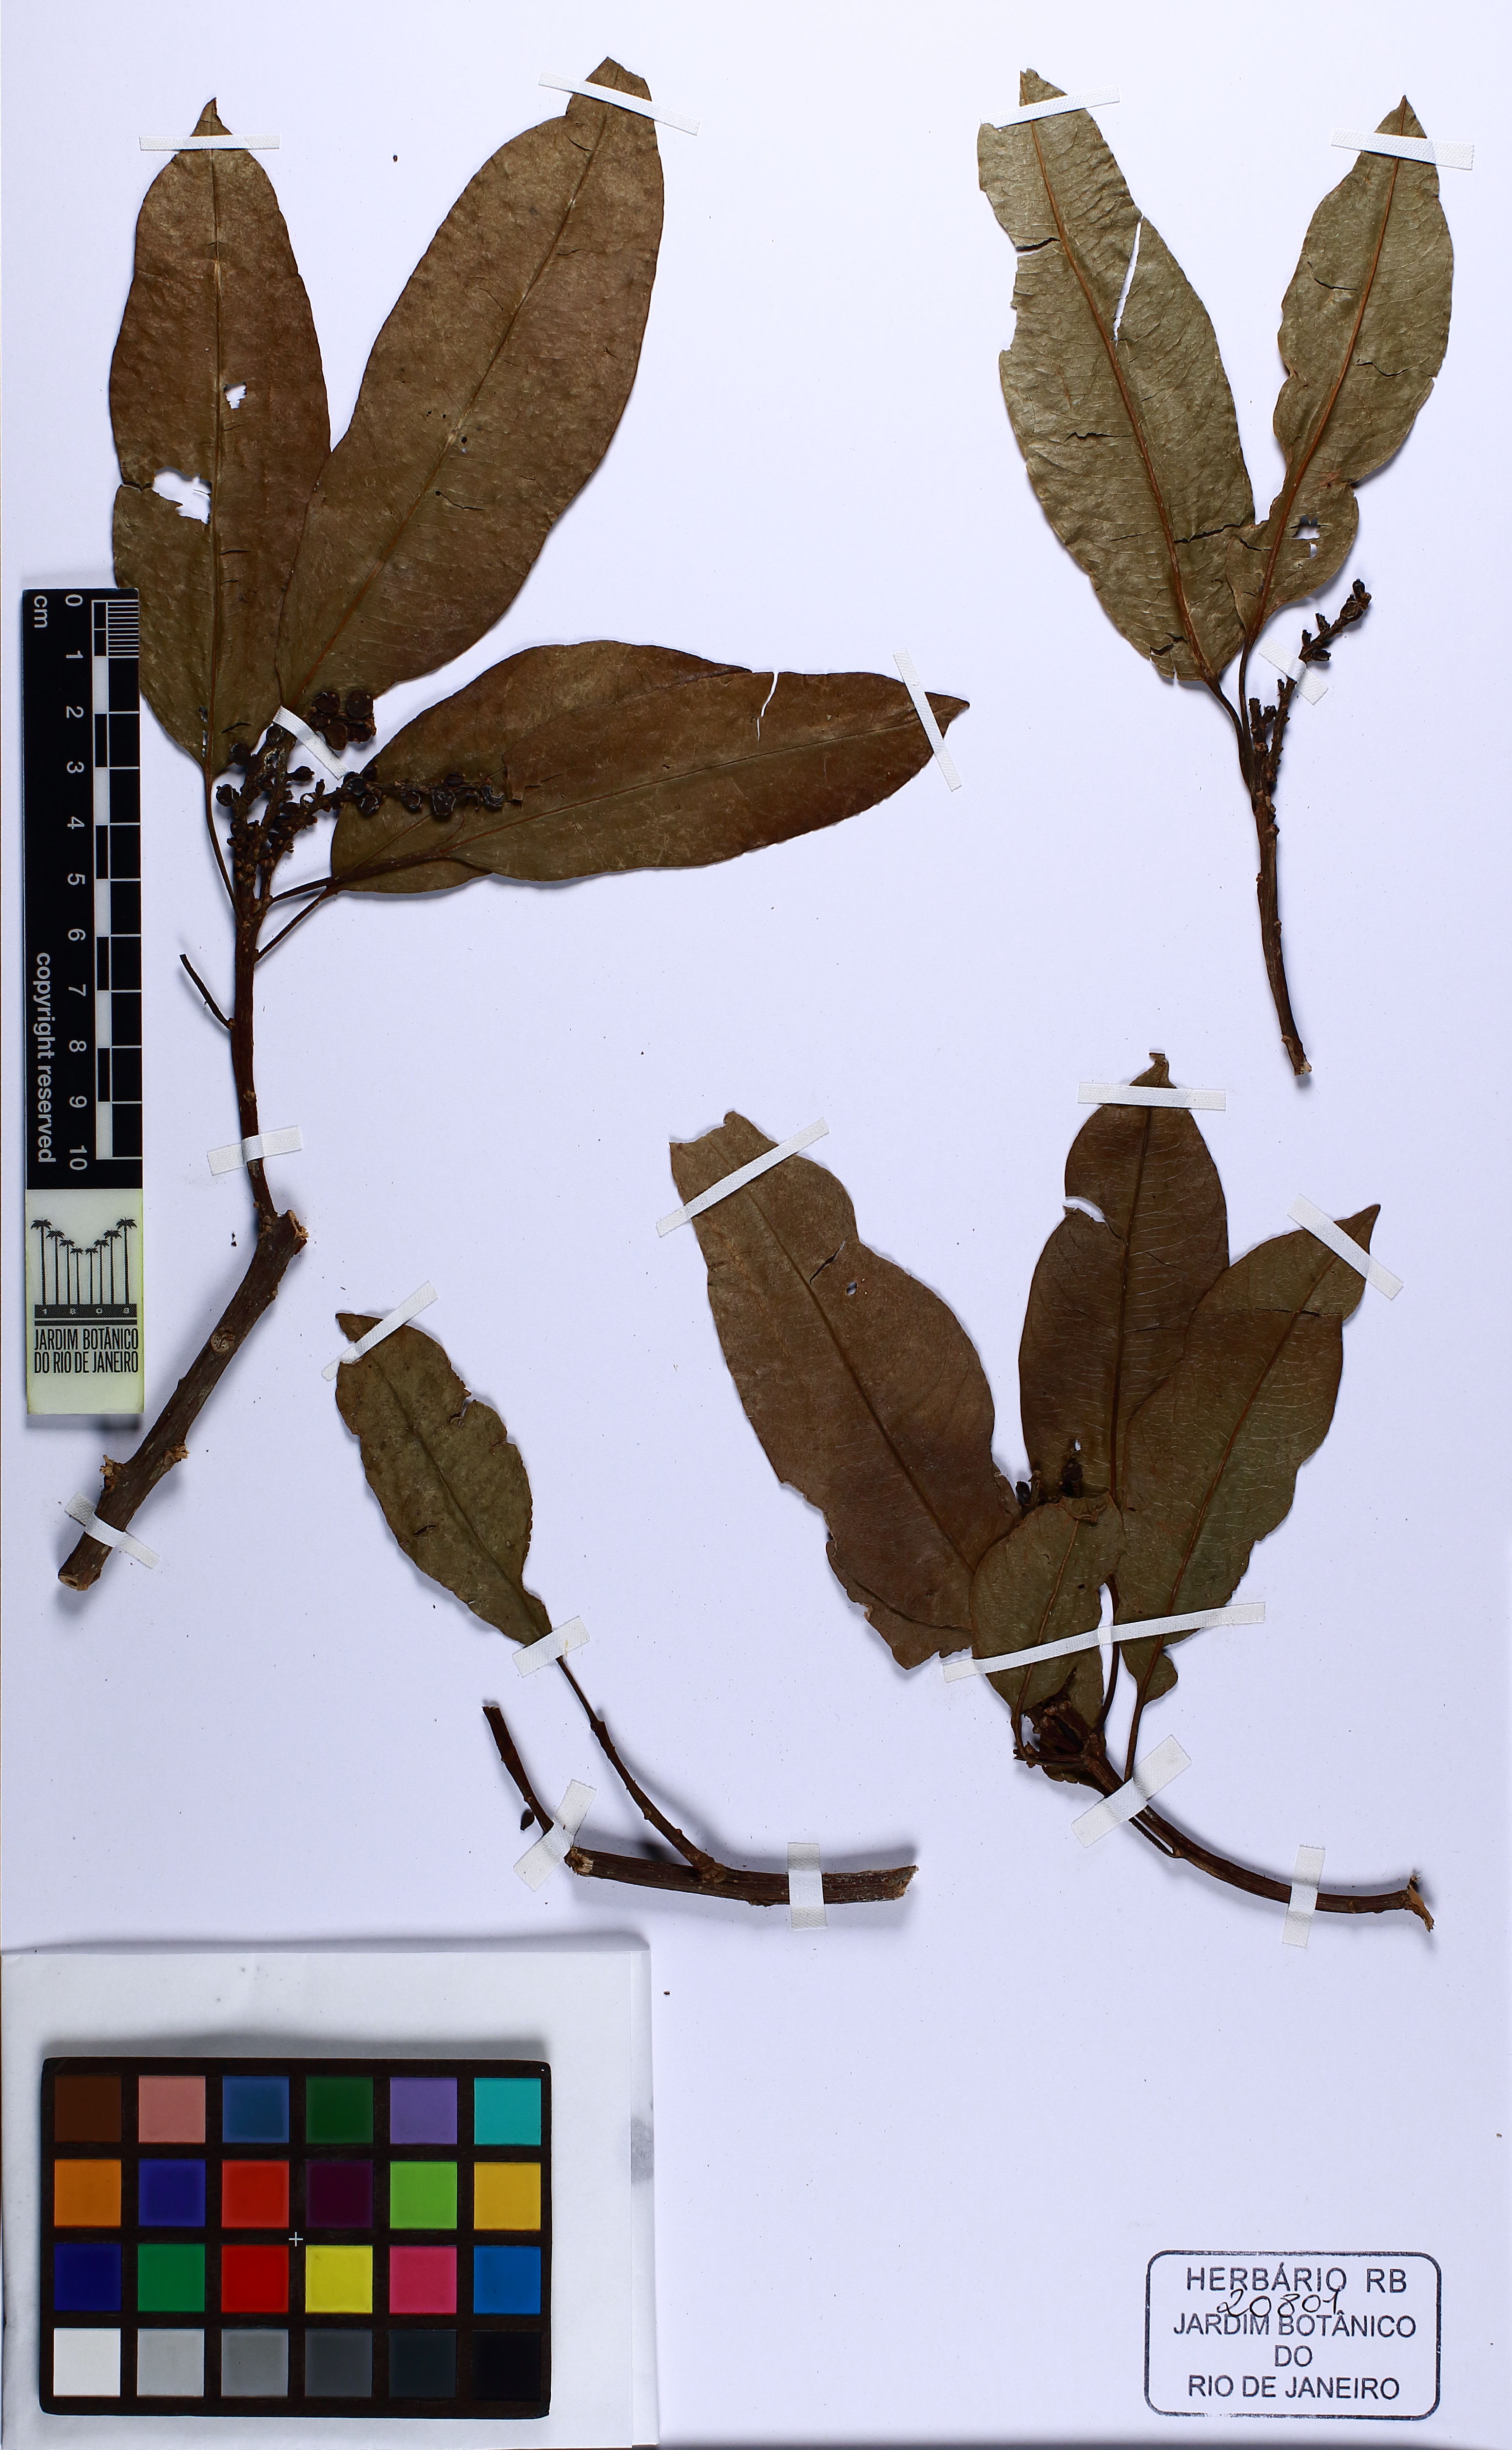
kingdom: Plantae
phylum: Tracheophyta
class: Magnoliopsida
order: Malpighiales
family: Euphorbiaceae
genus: Sapium
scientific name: Sapium glandulosum
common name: Milktree
